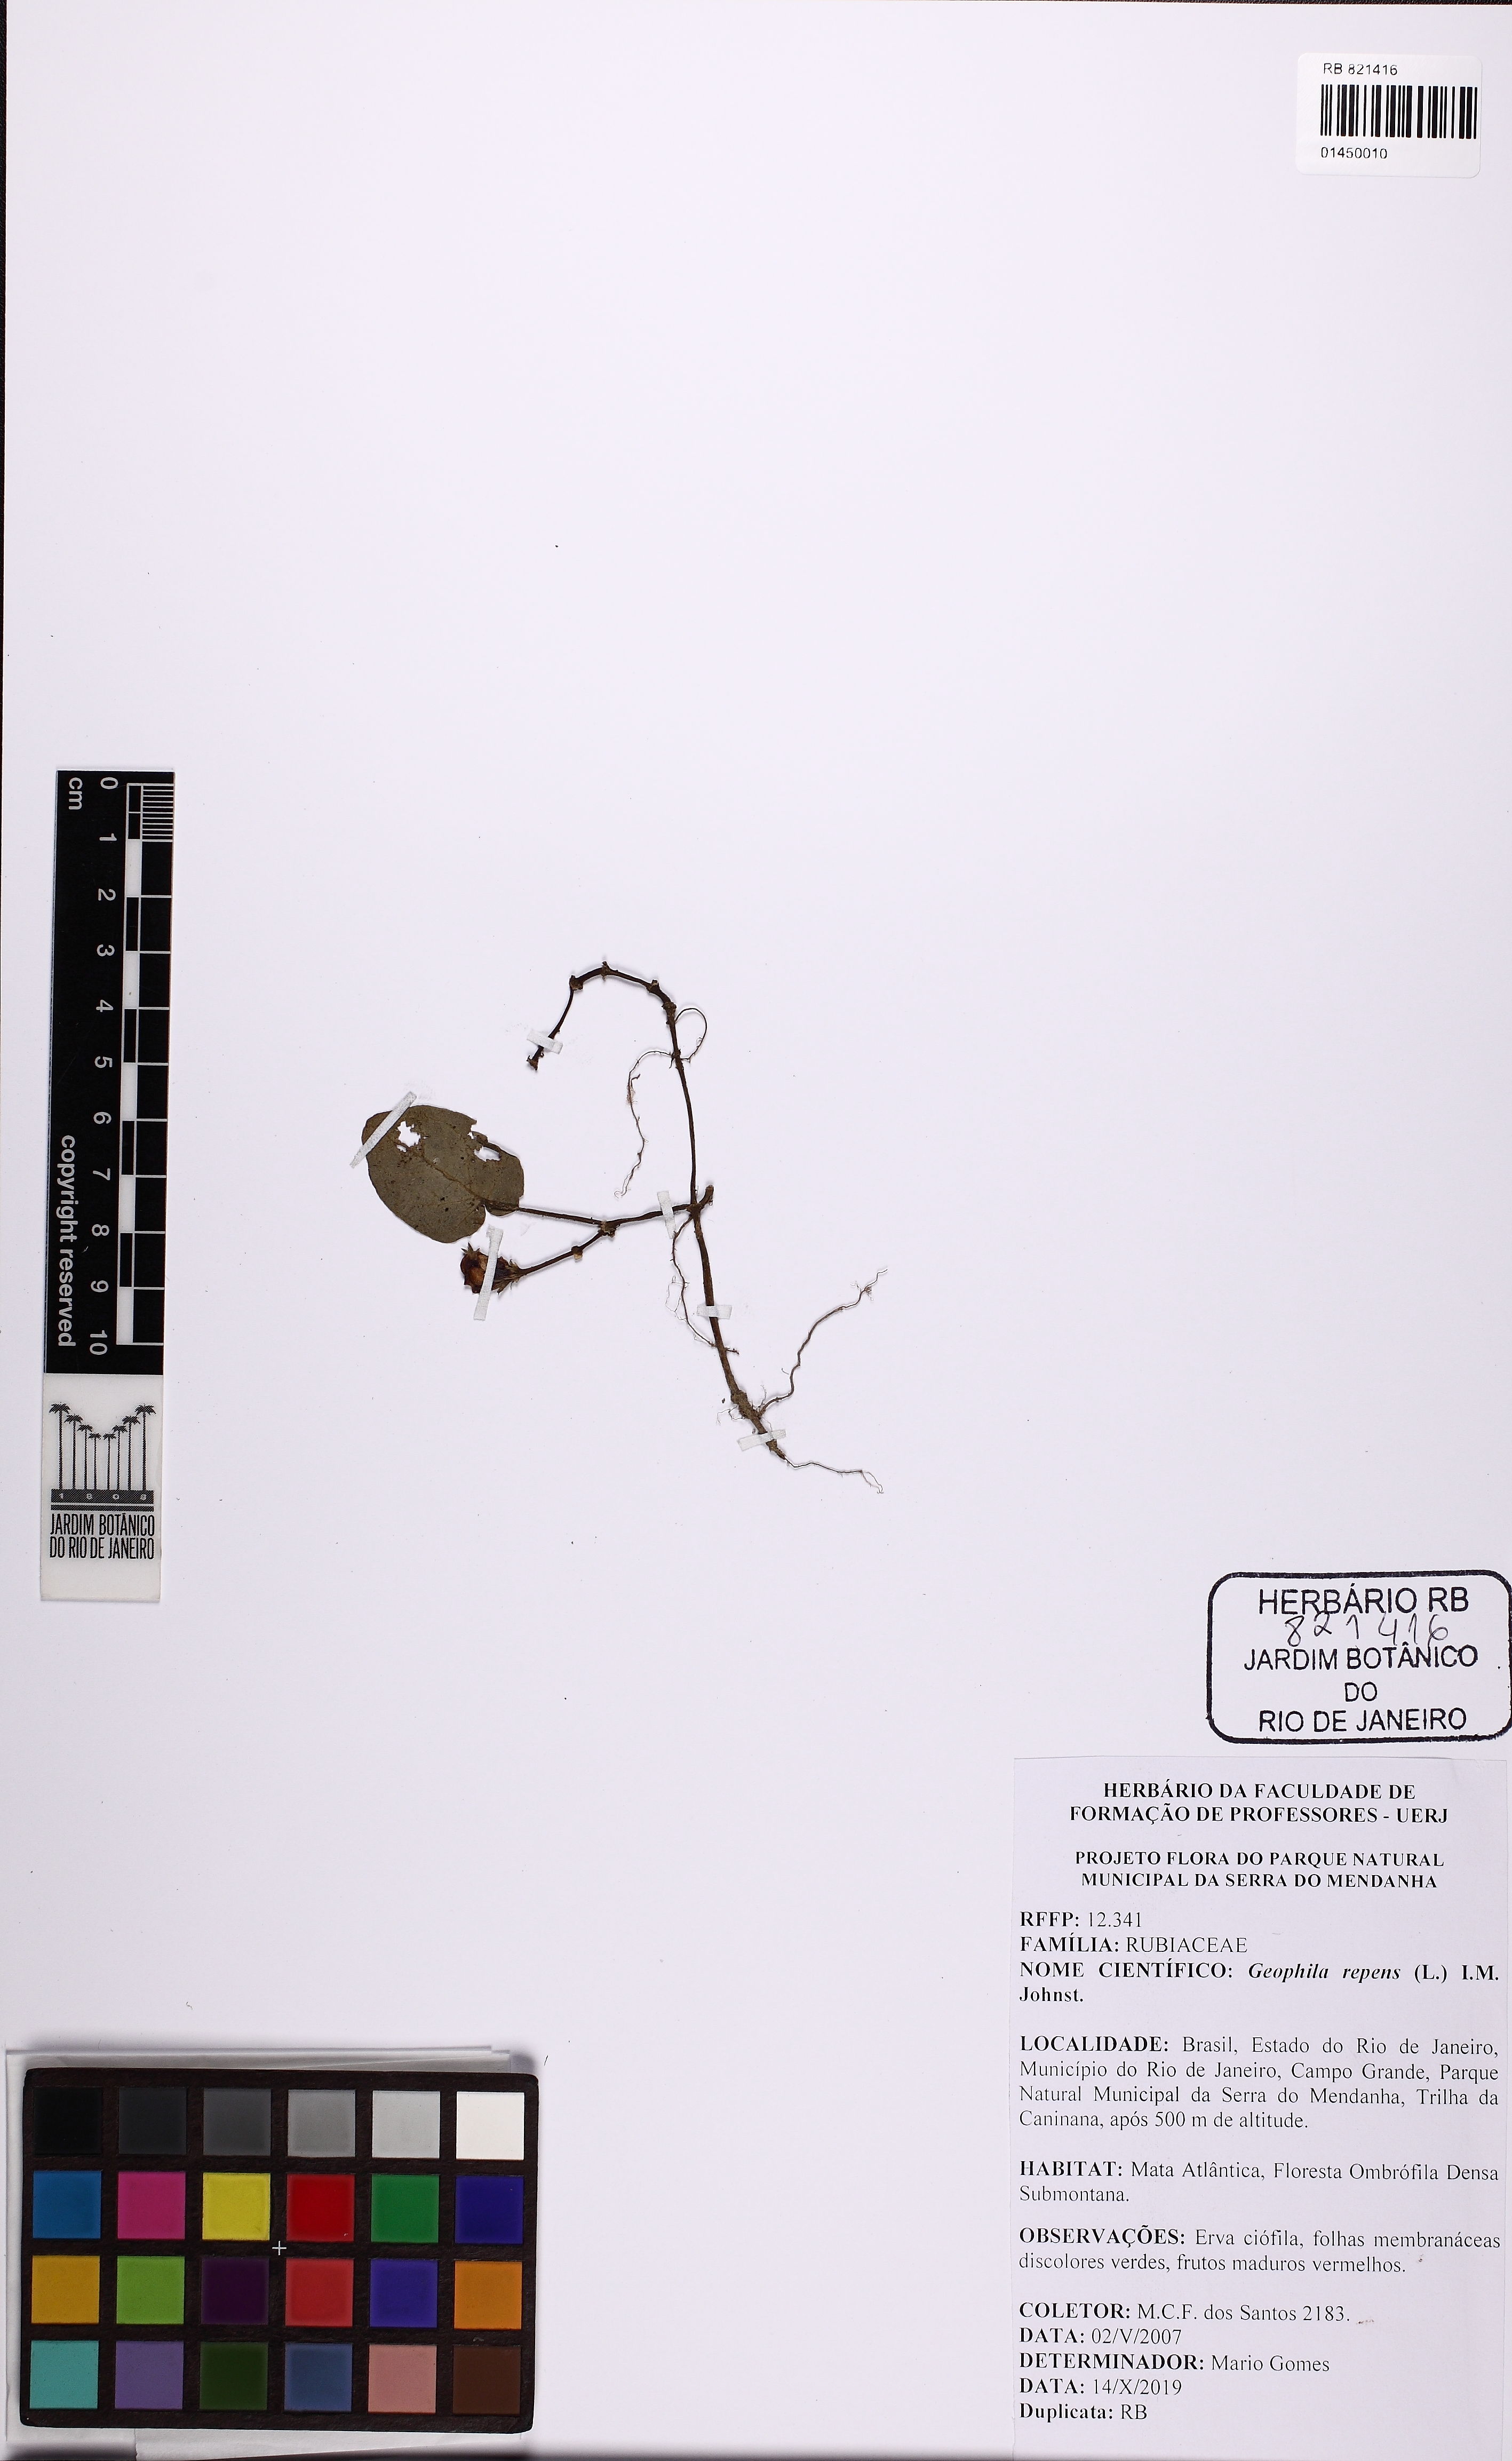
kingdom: Plantae
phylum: Tracheophyta
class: Magnoliopsida
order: Gentianales
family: Rubiaceae
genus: Geophila
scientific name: Geophila repens
